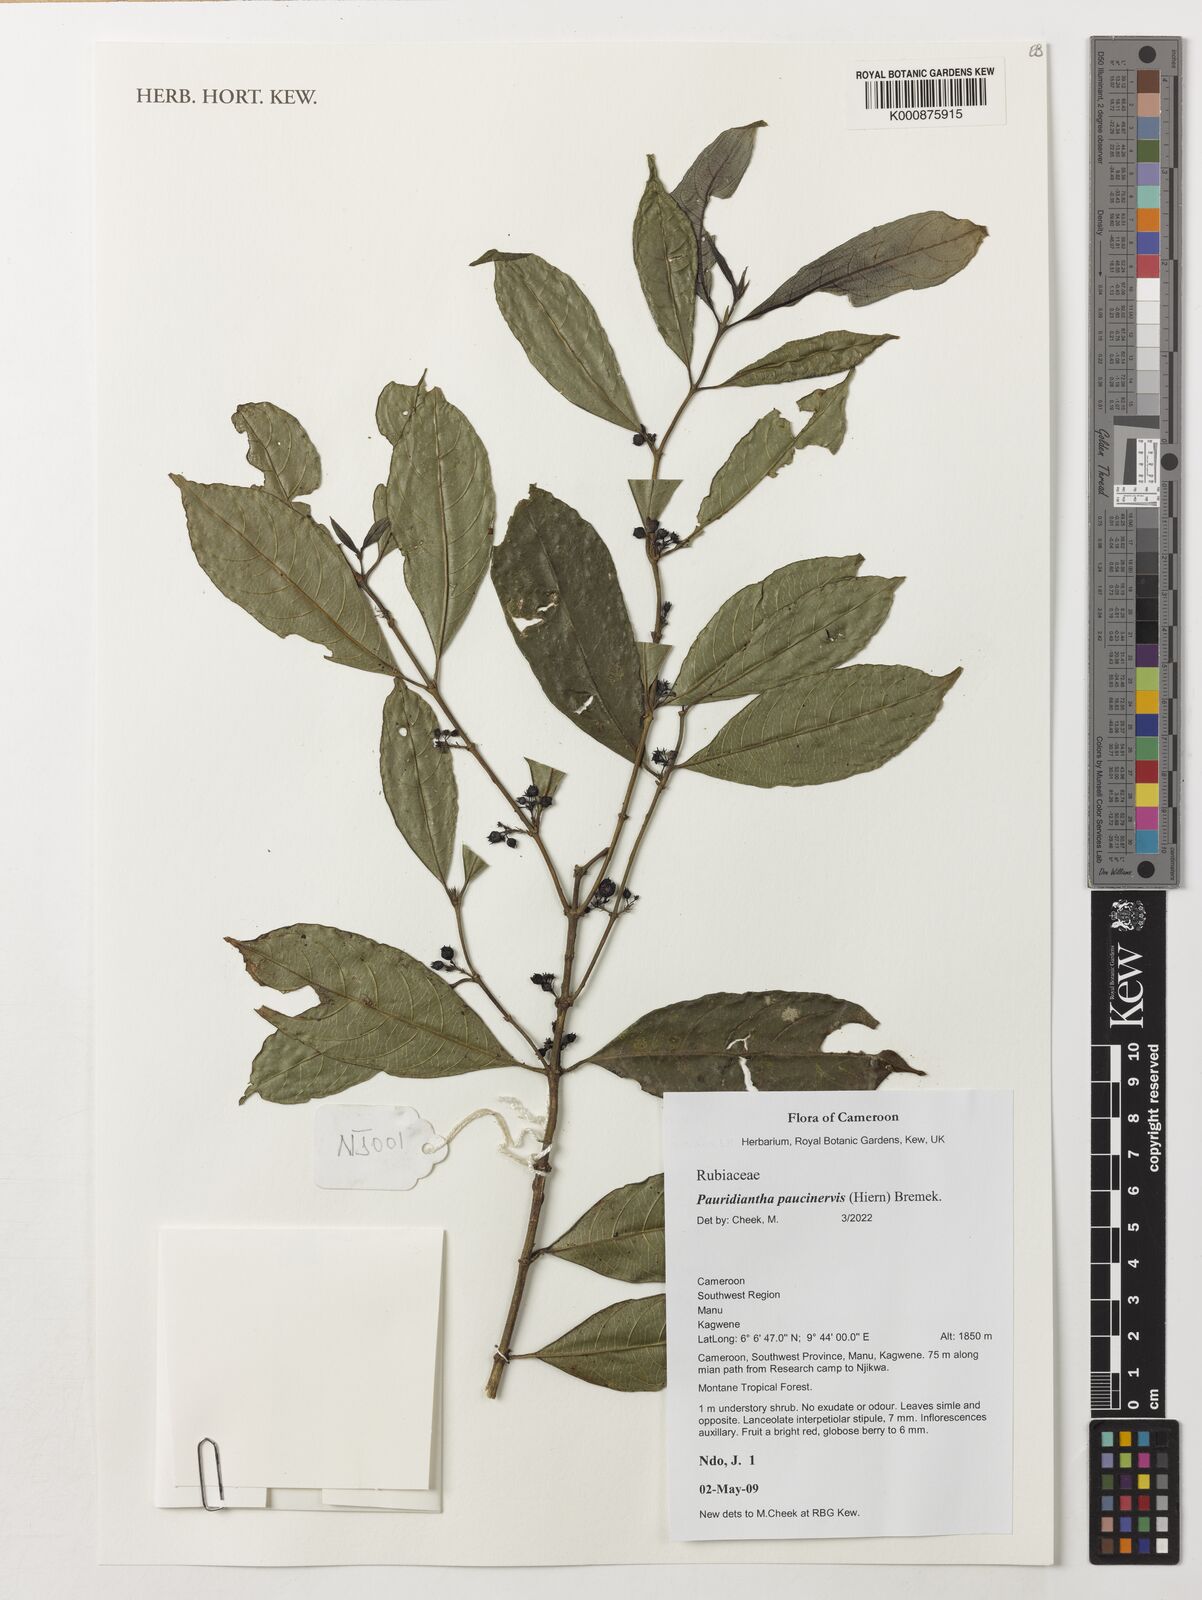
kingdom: Plantae
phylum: Tracheophyta
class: Magnoliopsida
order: Gentianales
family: Rubiaceae
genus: Pauridiantha
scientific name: Pauridiantha paucinervis
